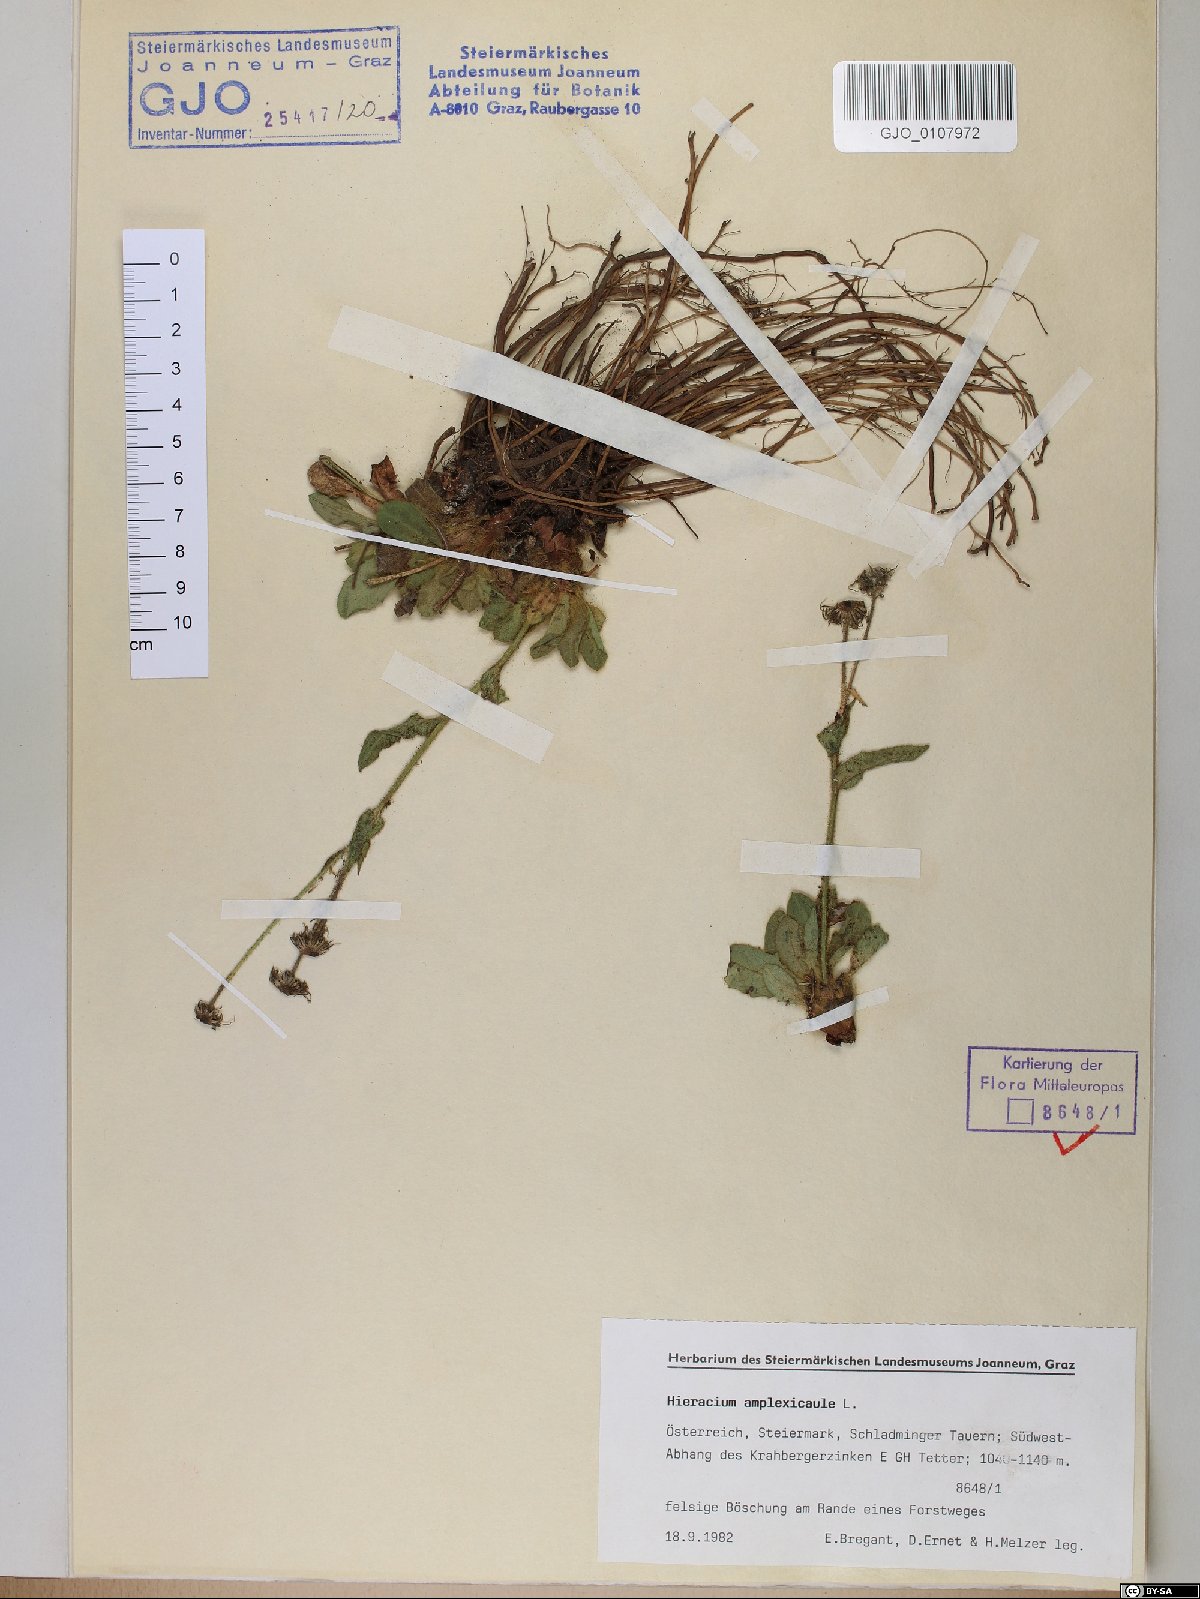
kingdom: Plantae
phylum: Tracheophyta
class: Magnoliopsida
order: Asterales
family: Asteraceae
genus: Hieracium
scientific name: Hieracium amplexicaule
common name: Sticky hawkweed
